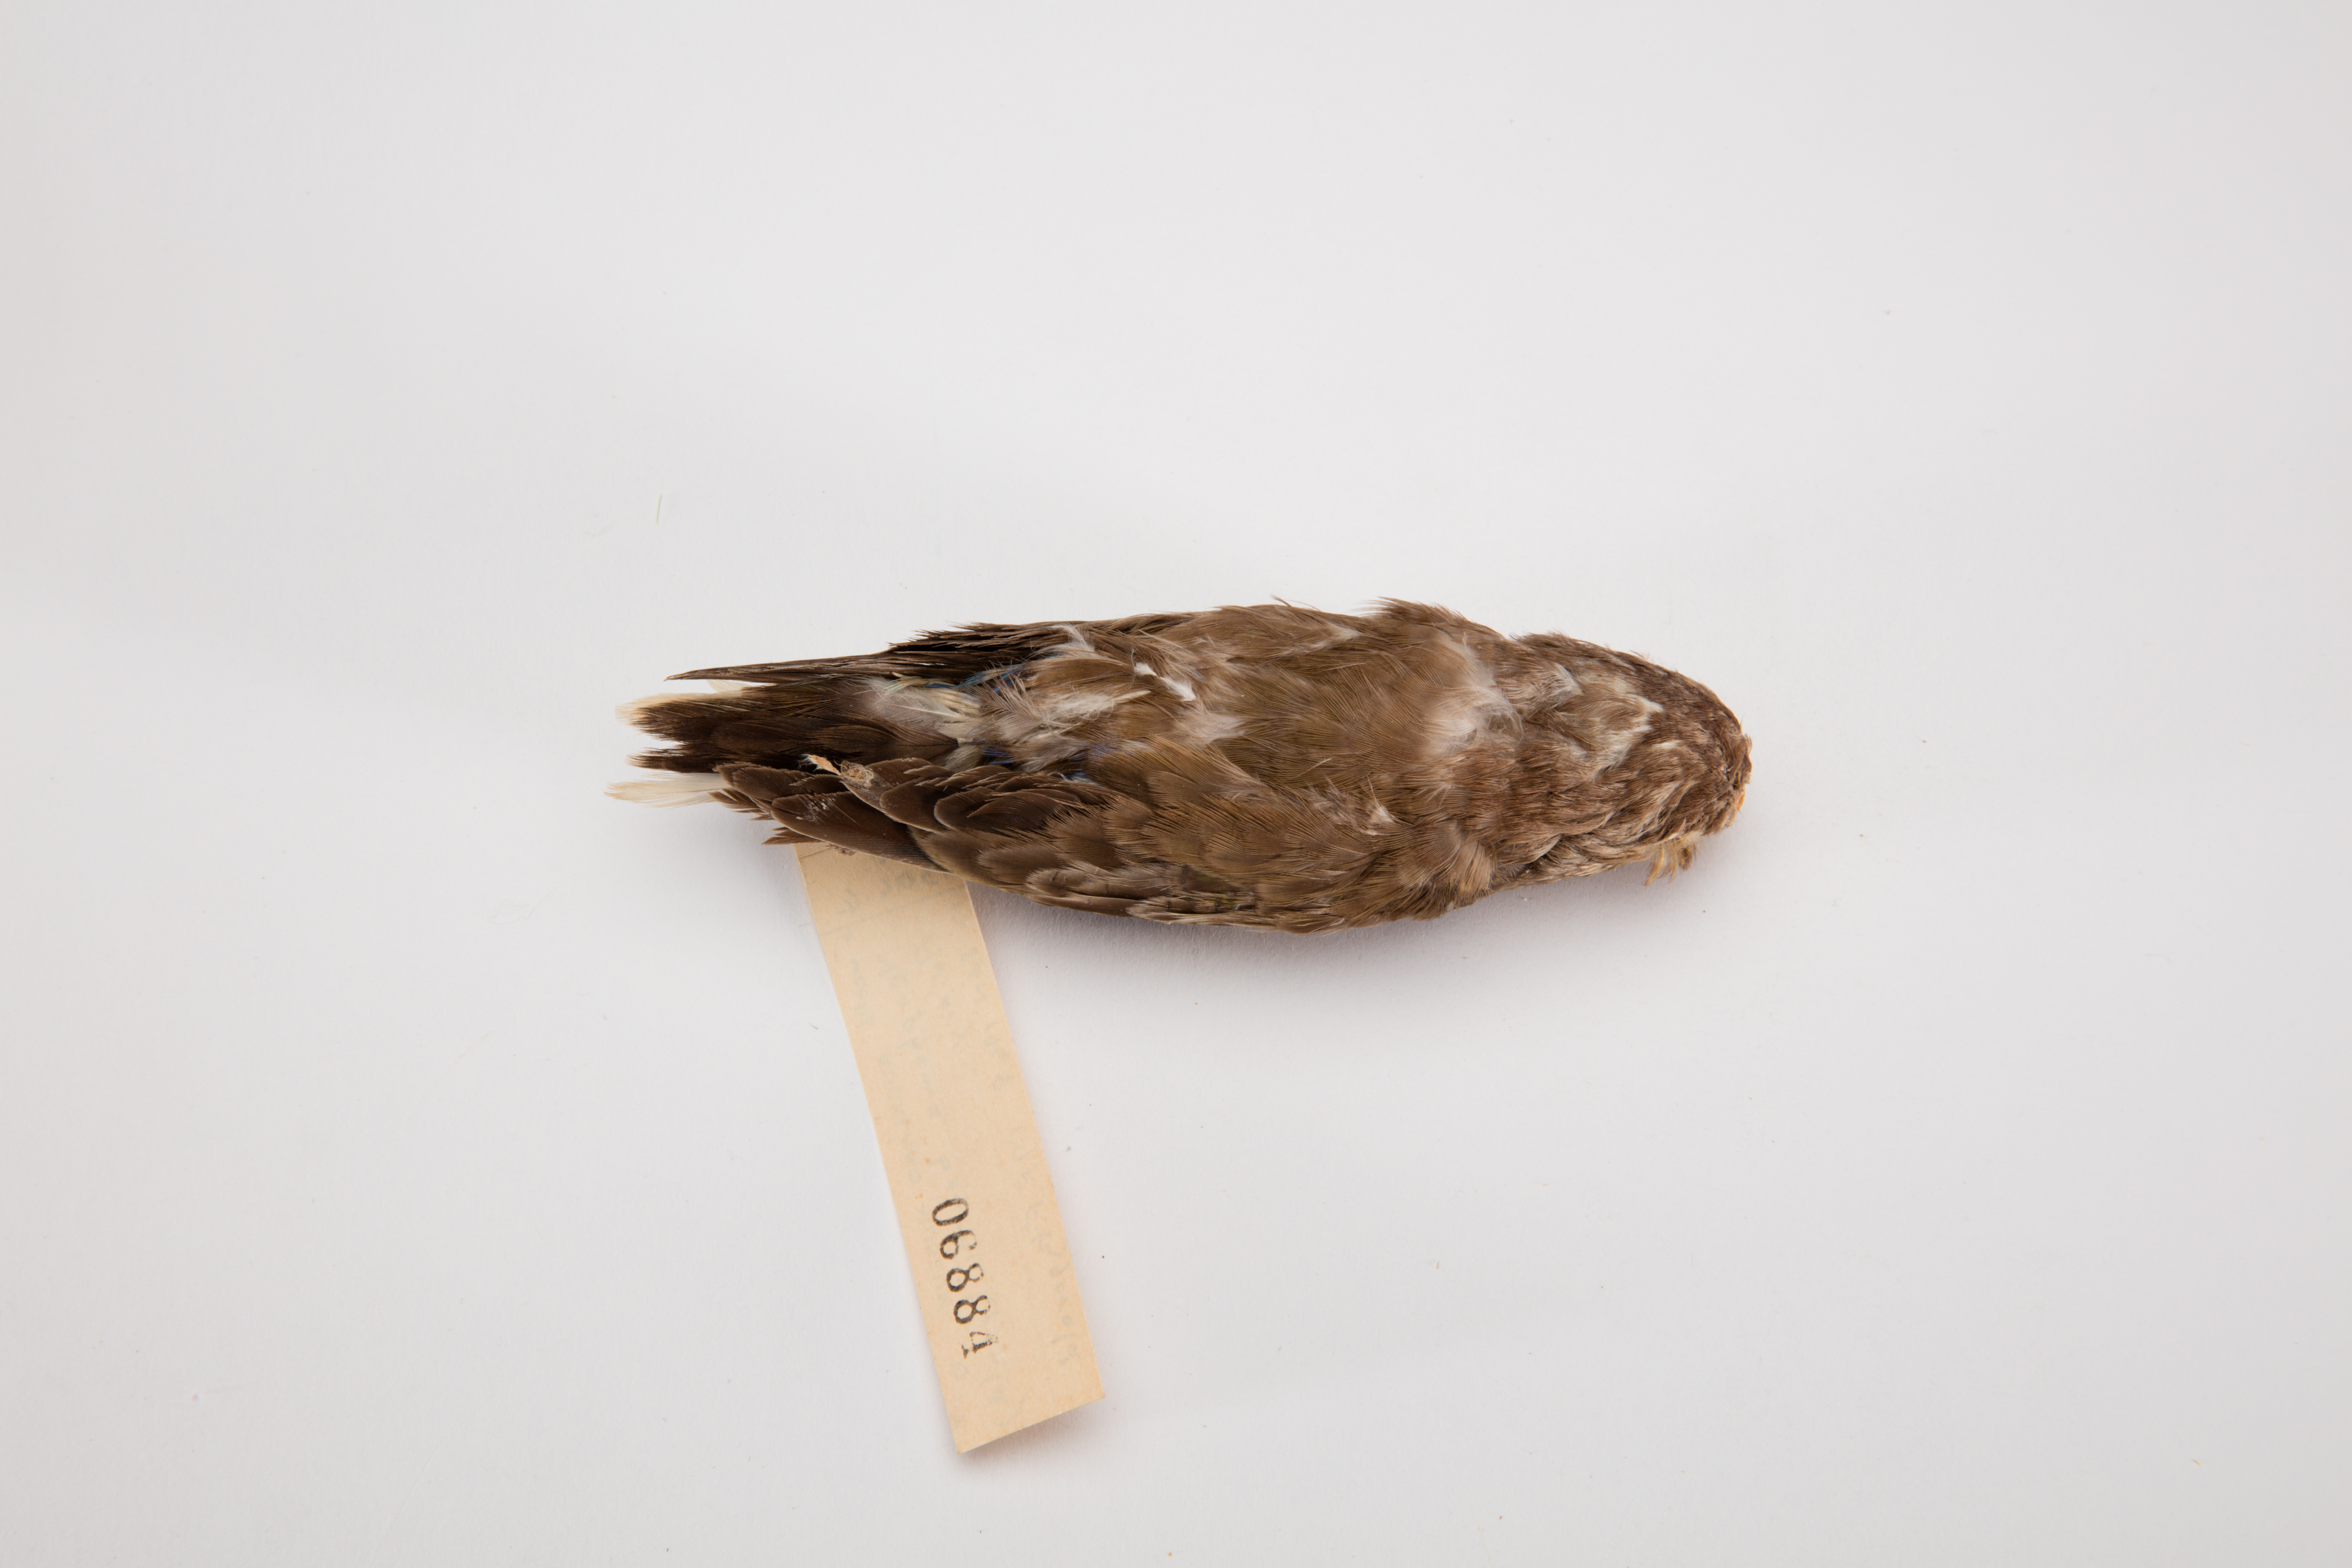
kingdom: Animalia
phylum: Chordata
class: Aves
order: Psittaciformes
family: Psittacidae
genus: Neopsephotus
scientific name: Neopsephotus bourkii
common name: Bourke's parrot
